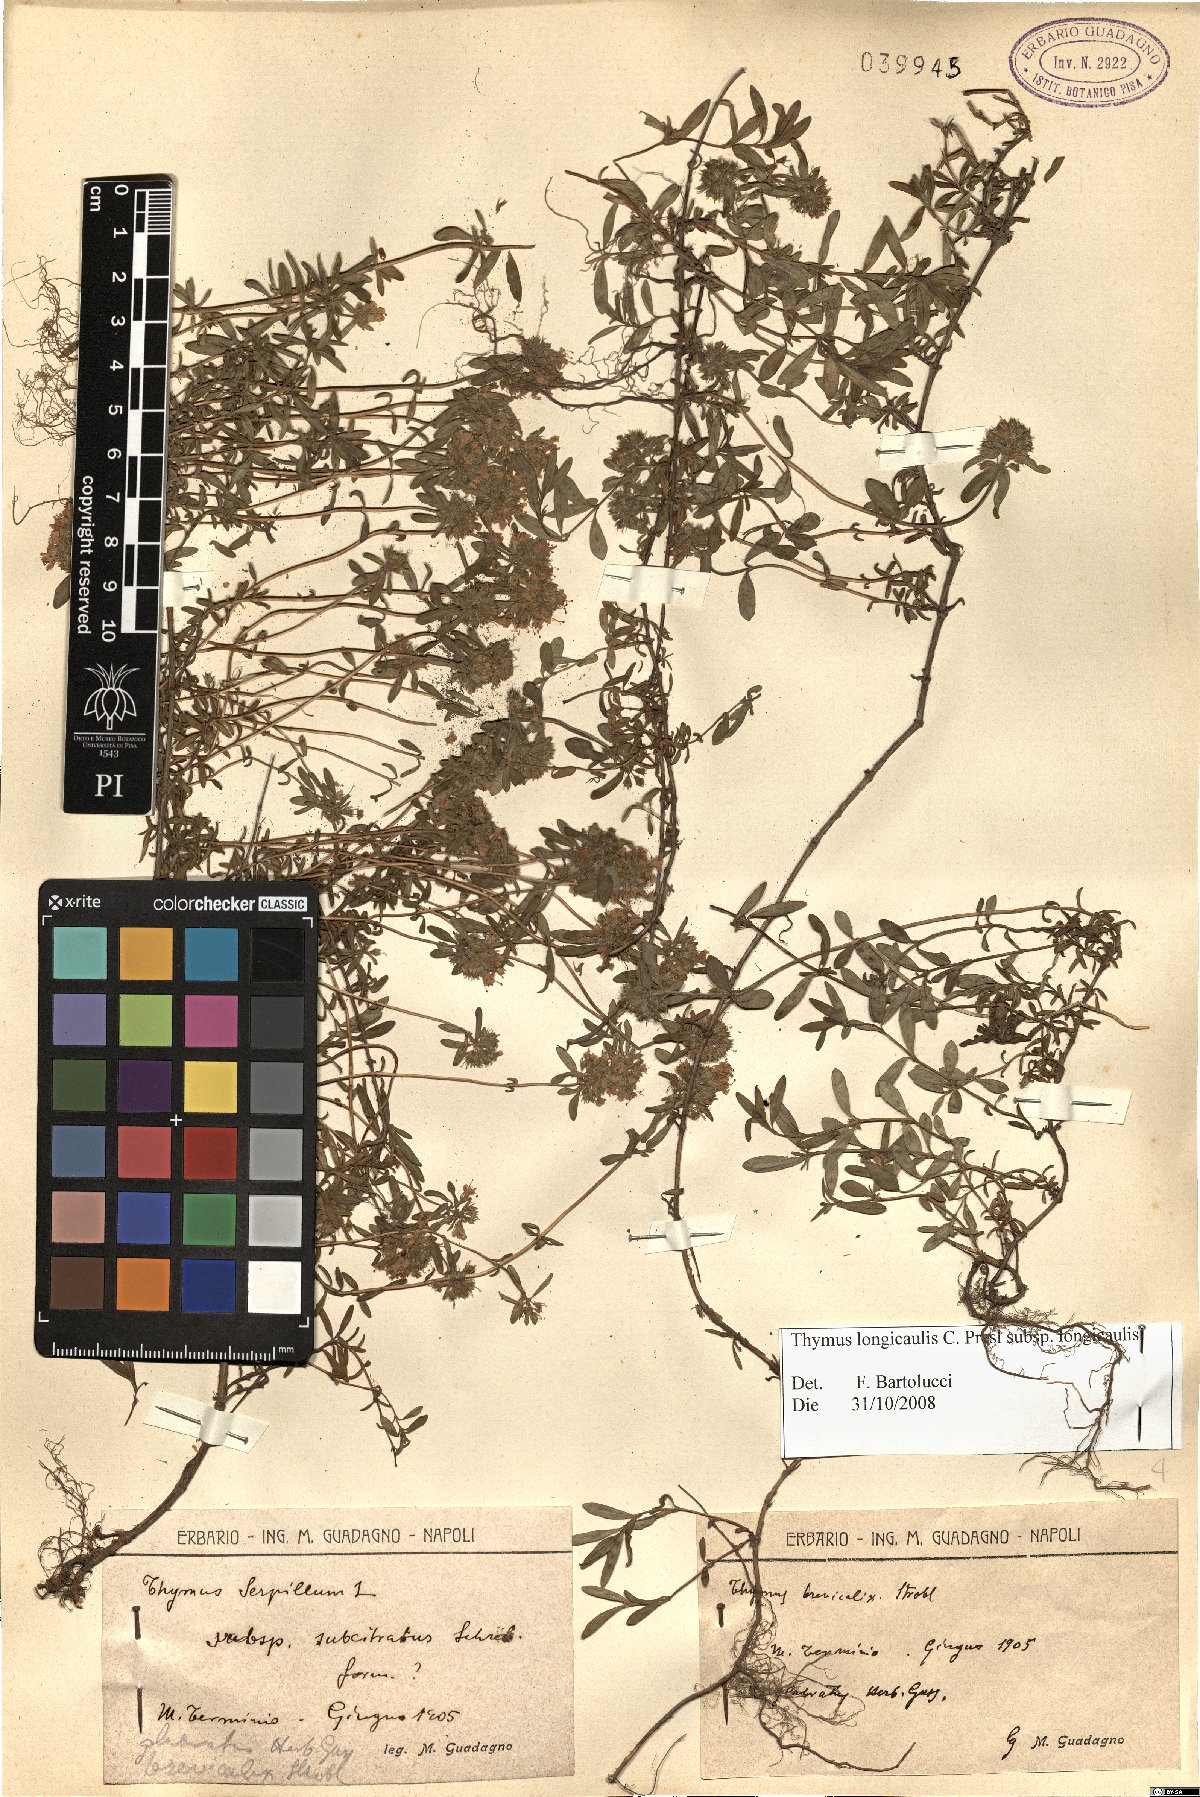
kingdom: Plantae
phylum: Tracheophyta
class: Magnoliopsida
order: Lamiales
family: Lamiaceae
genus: Thymus
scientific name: Thymus longicaulis
